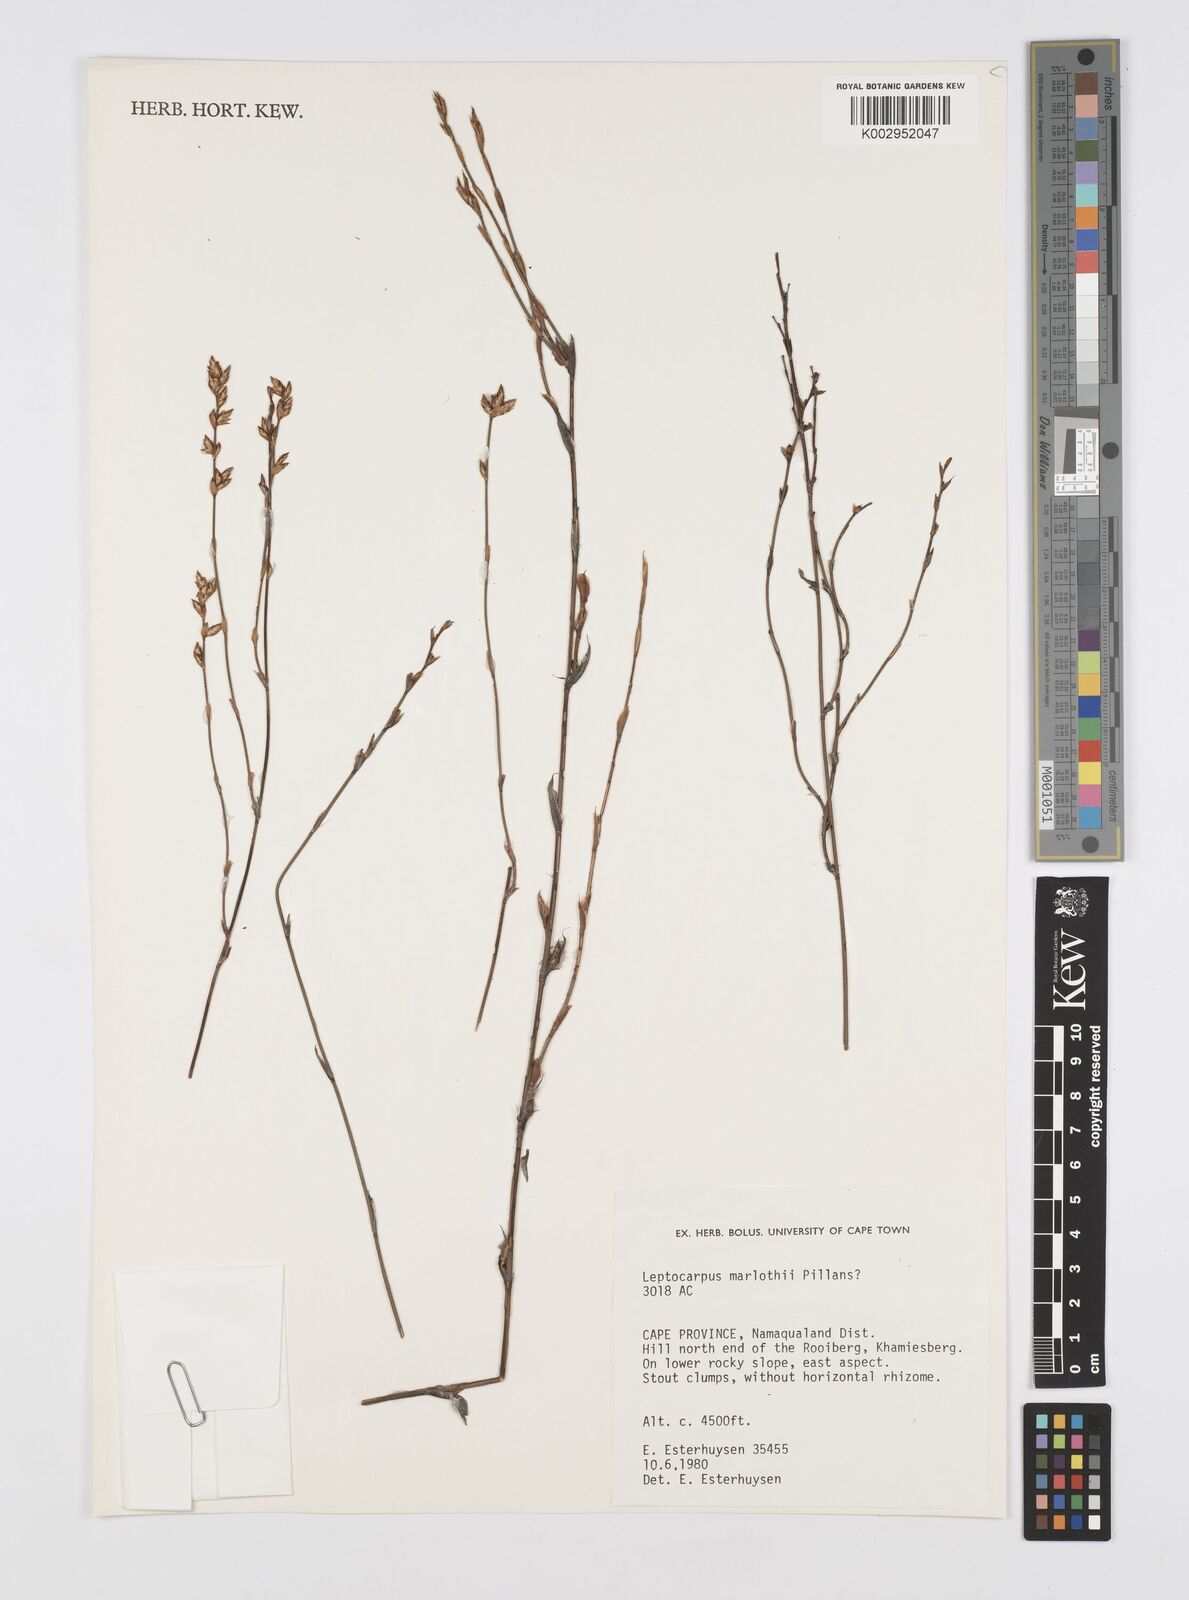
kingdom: Plantae
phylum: Tracheophyta
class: Liliopsida
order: Poales
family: Restionaceae
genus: Restio
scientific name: Restio marlothii
